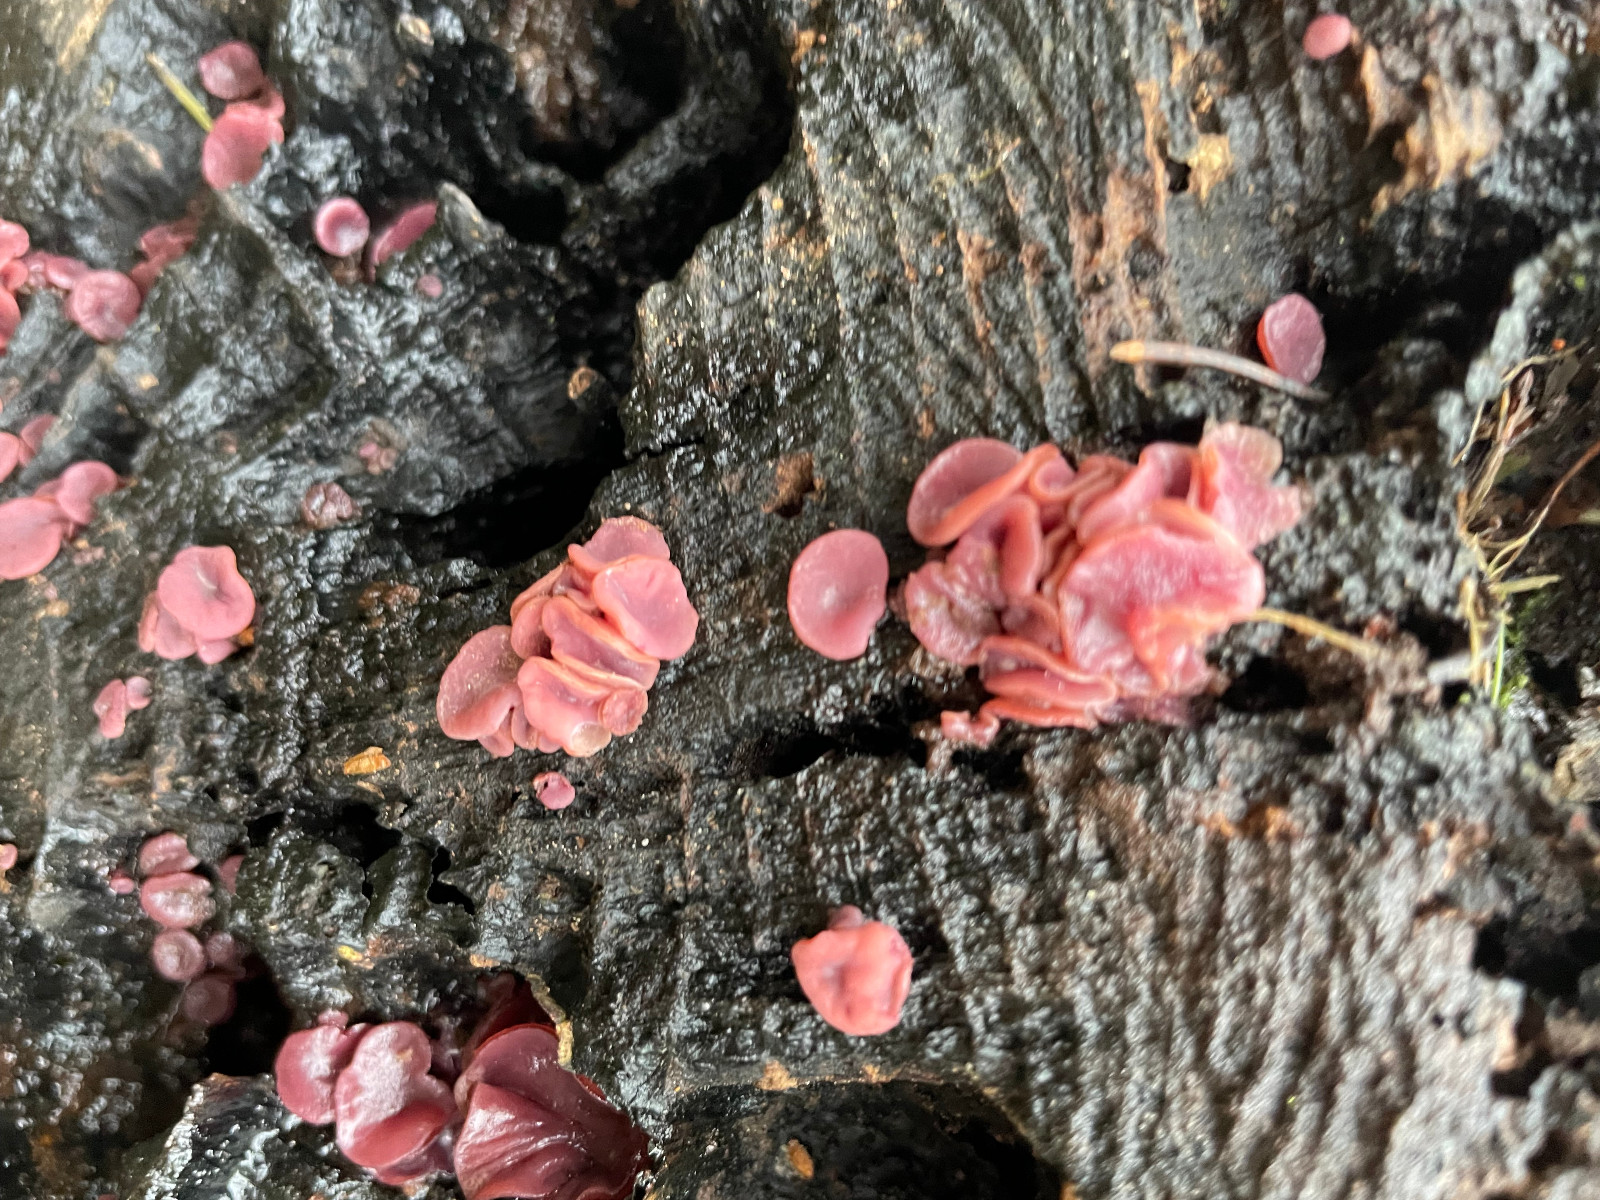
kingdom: Fungi
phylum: Ascomycota
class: Leotiomycetes
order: Helotiales
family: Gelatinodiscaceae
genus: Ascocoryne
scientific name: Ascocoryne
